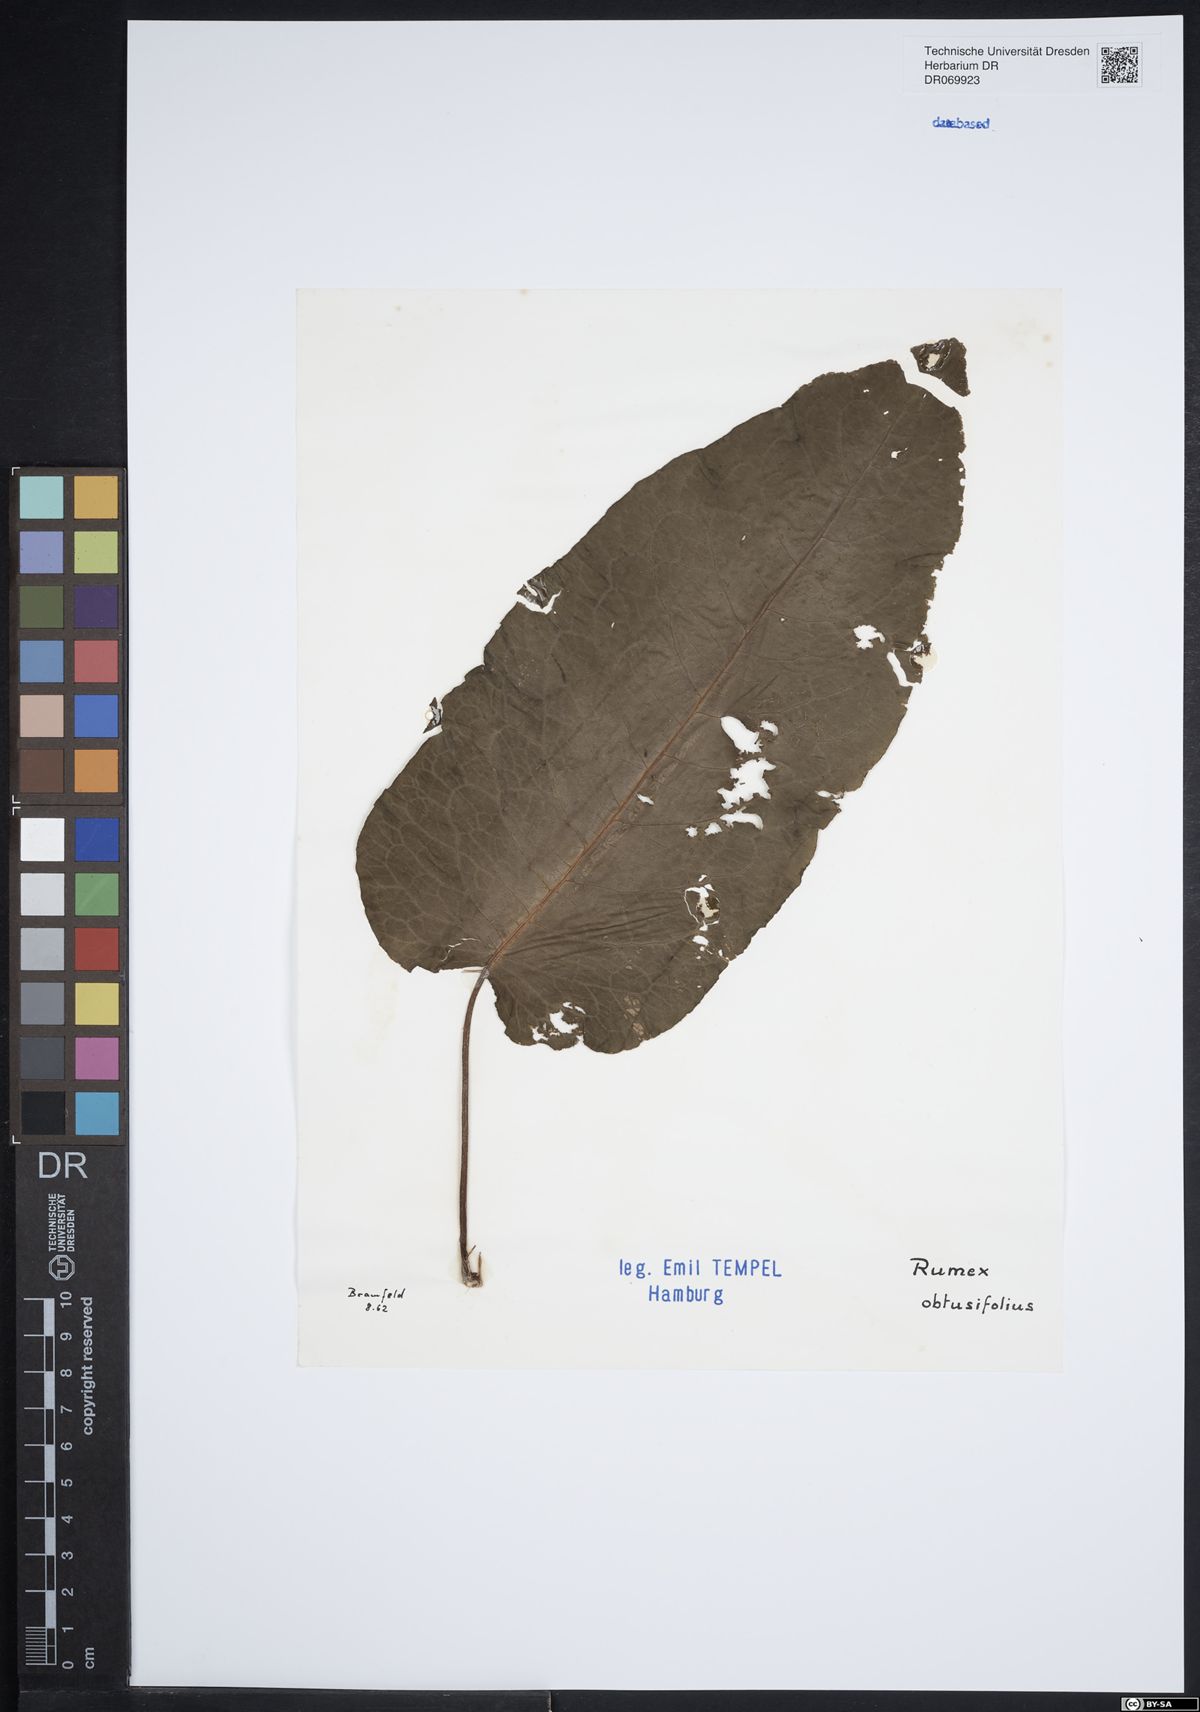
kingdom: Plantae
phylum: Tracheophyta
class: Magnoliopsida
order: Caryophyllales
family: Polygonaceae
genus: Rumex
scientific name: Rumex obtusifolius
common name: Bitter dock
